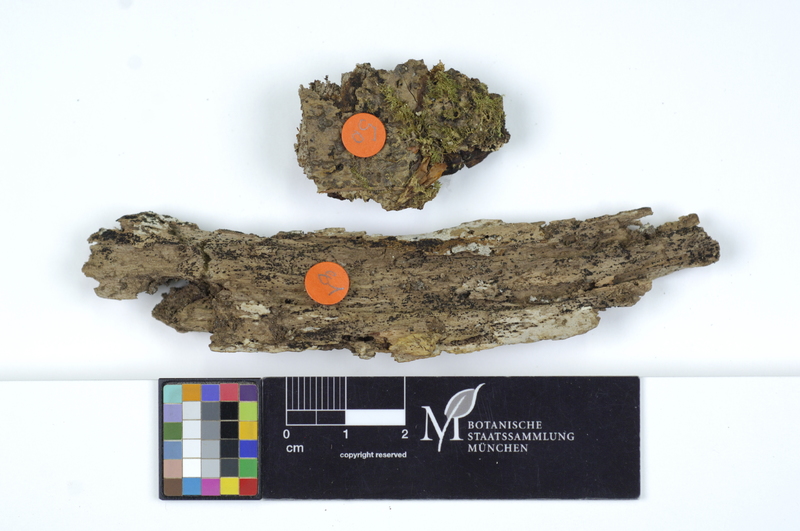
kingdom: Fungi
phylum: Ascomycota
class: Sordariomycetes
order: Sordariales
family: Helminthosphaeriaceae
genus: Ruzenia
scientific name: Ruzenia spermoides
